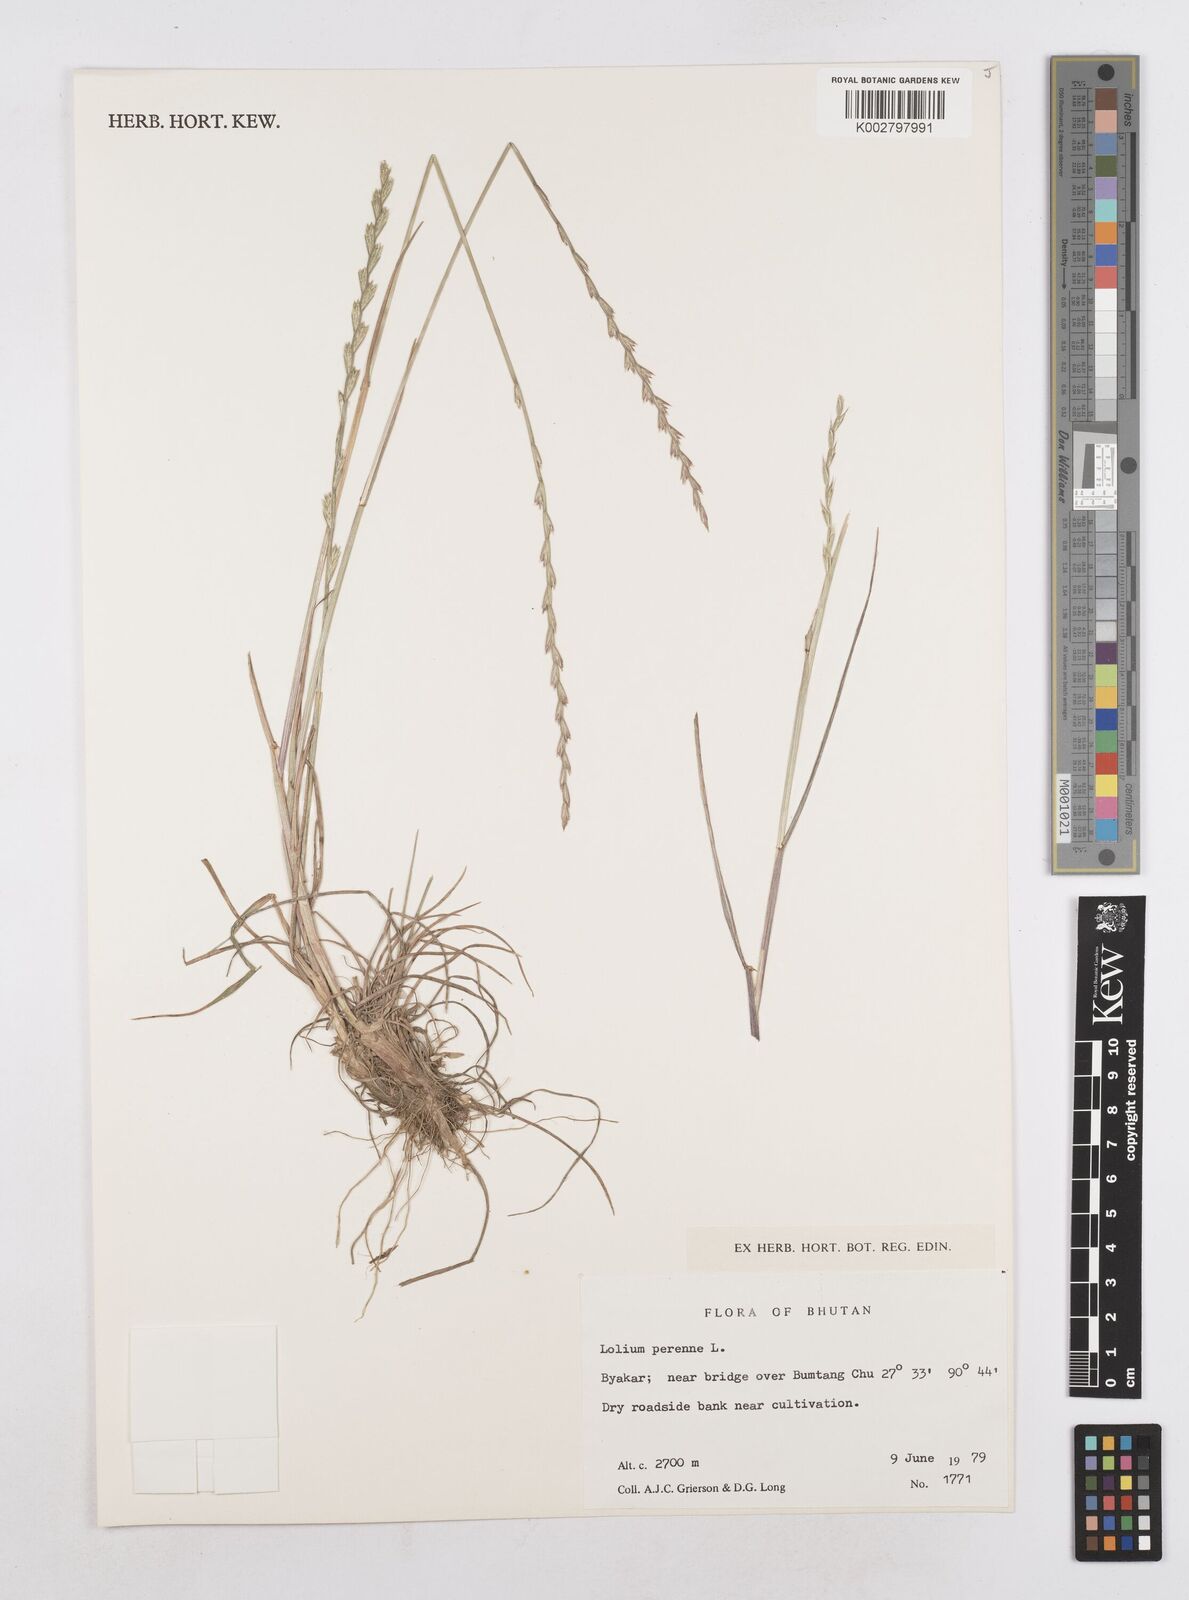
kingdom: Plantae
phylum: Tracheophyta
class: Liliopsida
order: Poales
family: Poaceae
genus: Lolium
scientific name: Lolium perenne
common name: Perennial ryegrass
